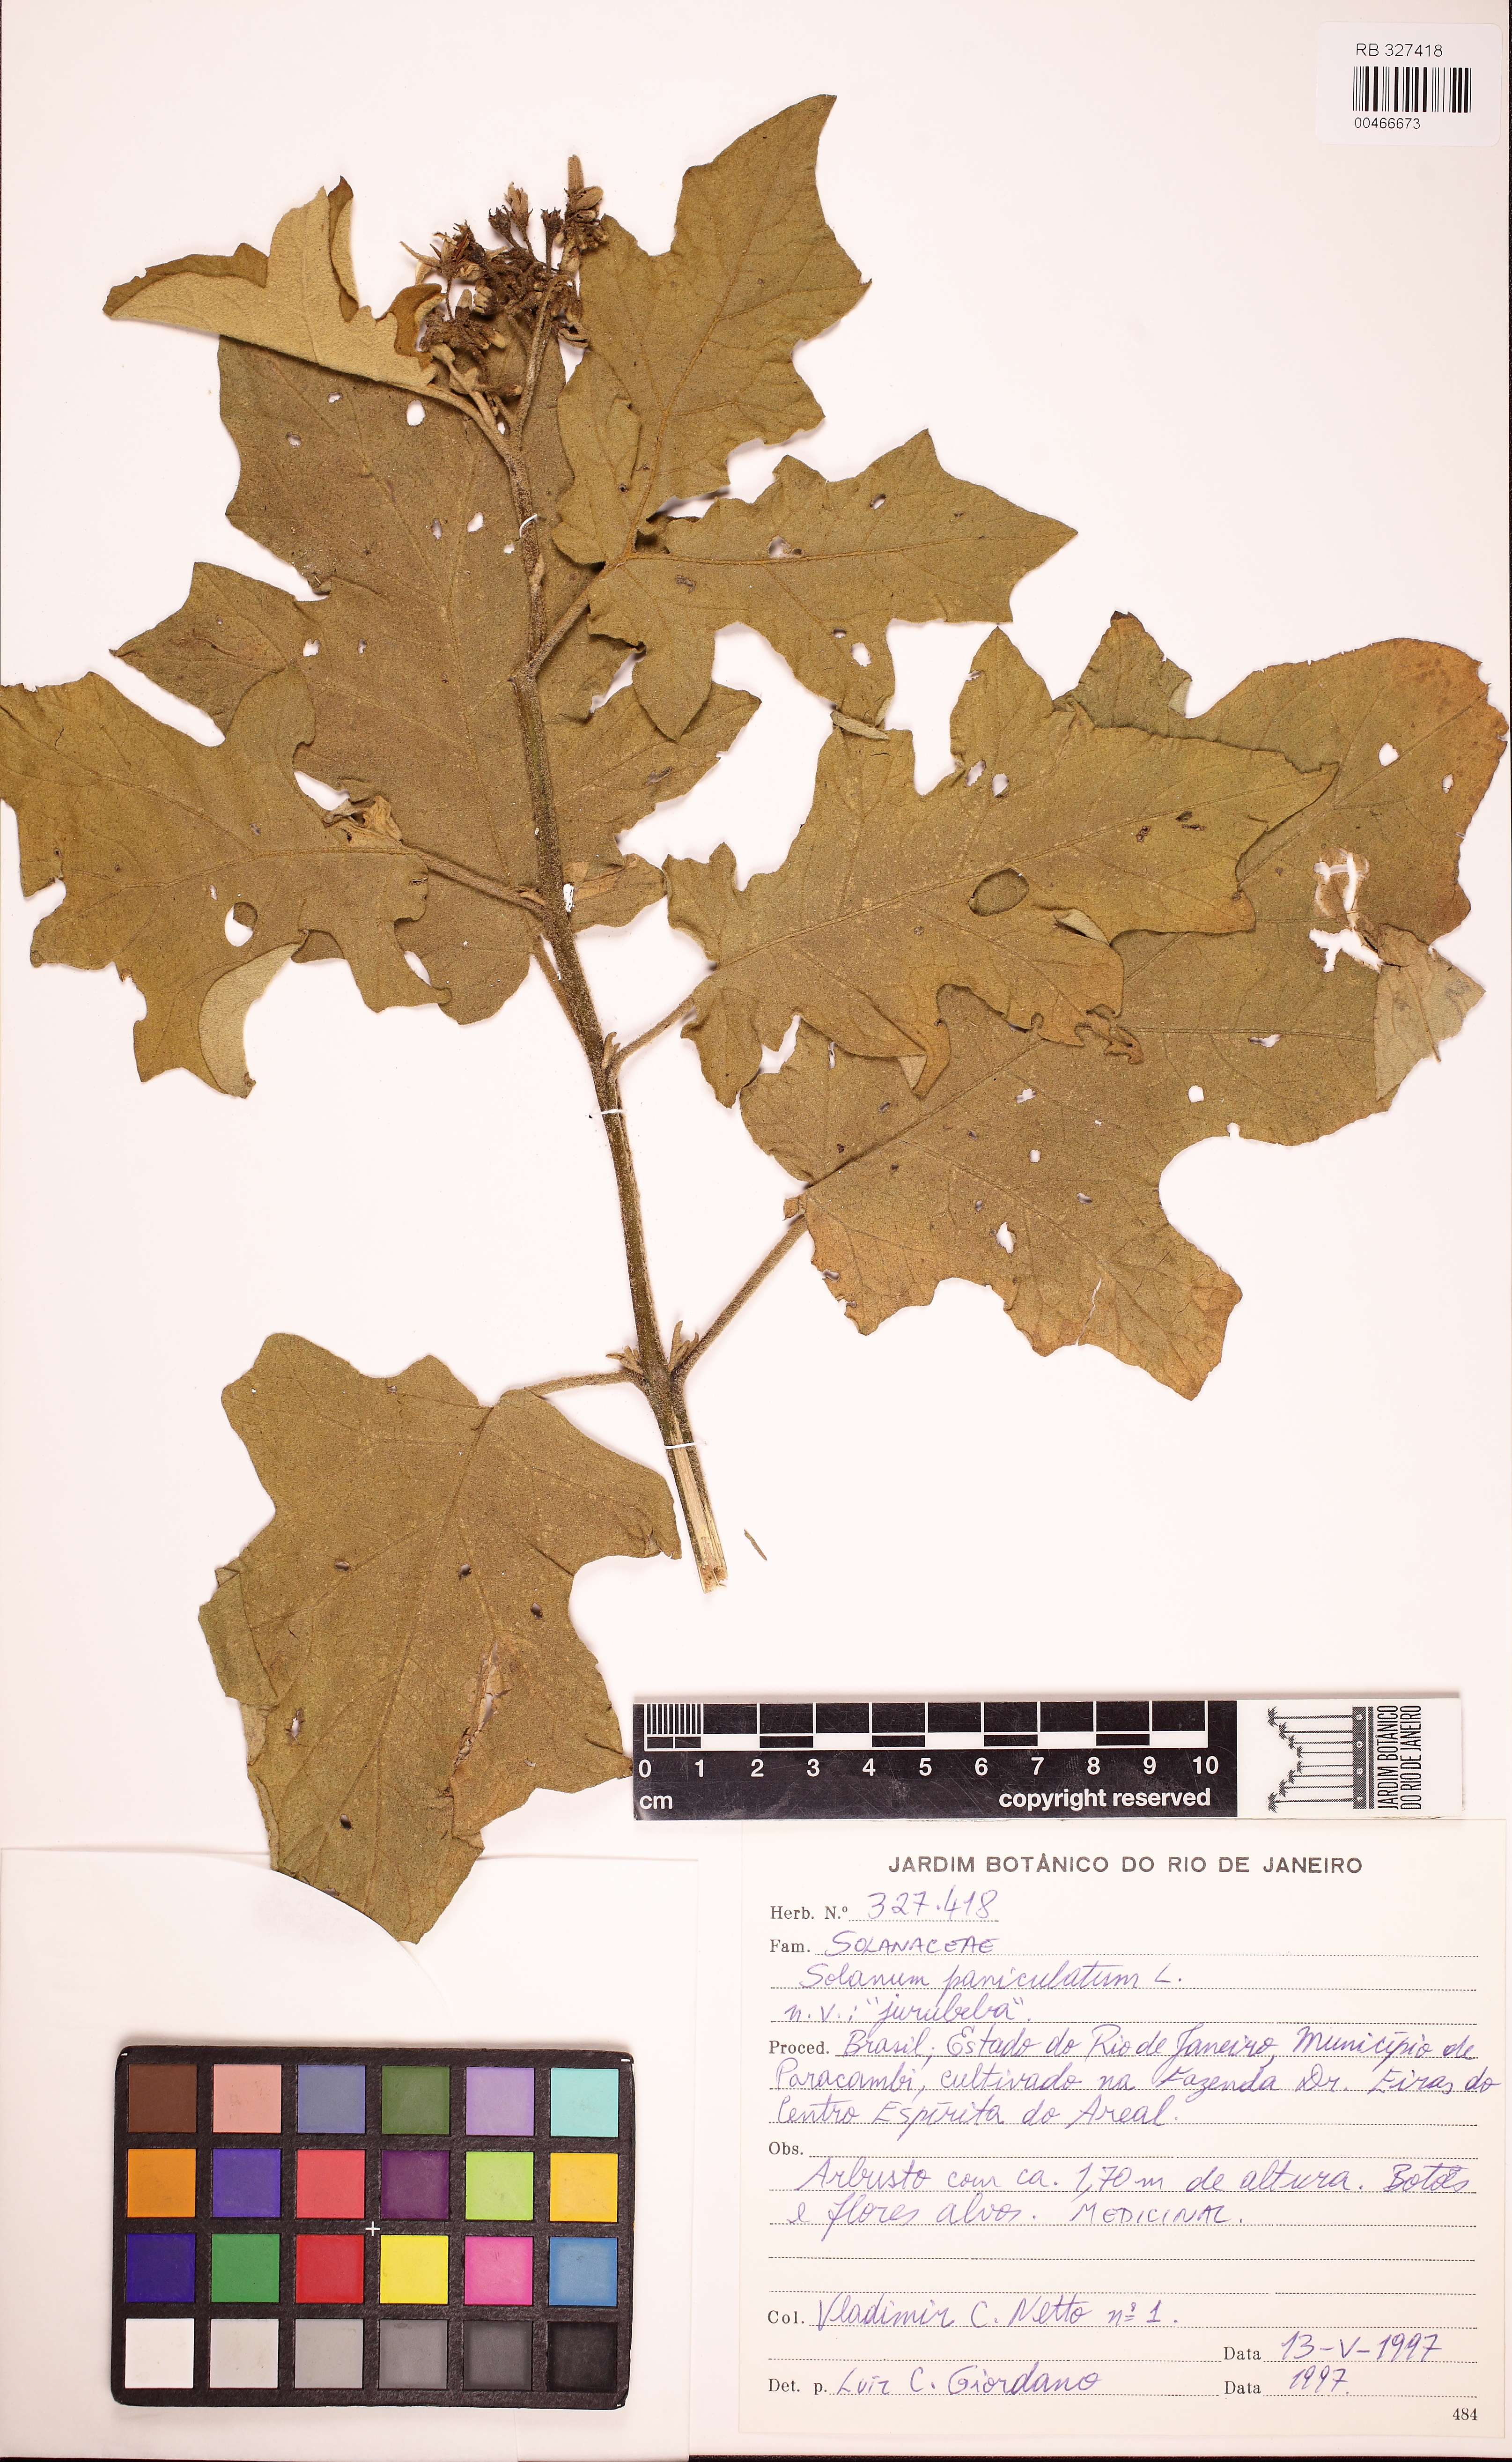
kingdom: Plantae
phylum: Tracheophyta
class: Magnoliopsida
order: Solanales
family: Solanaceae
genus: Solanum
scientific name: Solanum paniculatum
